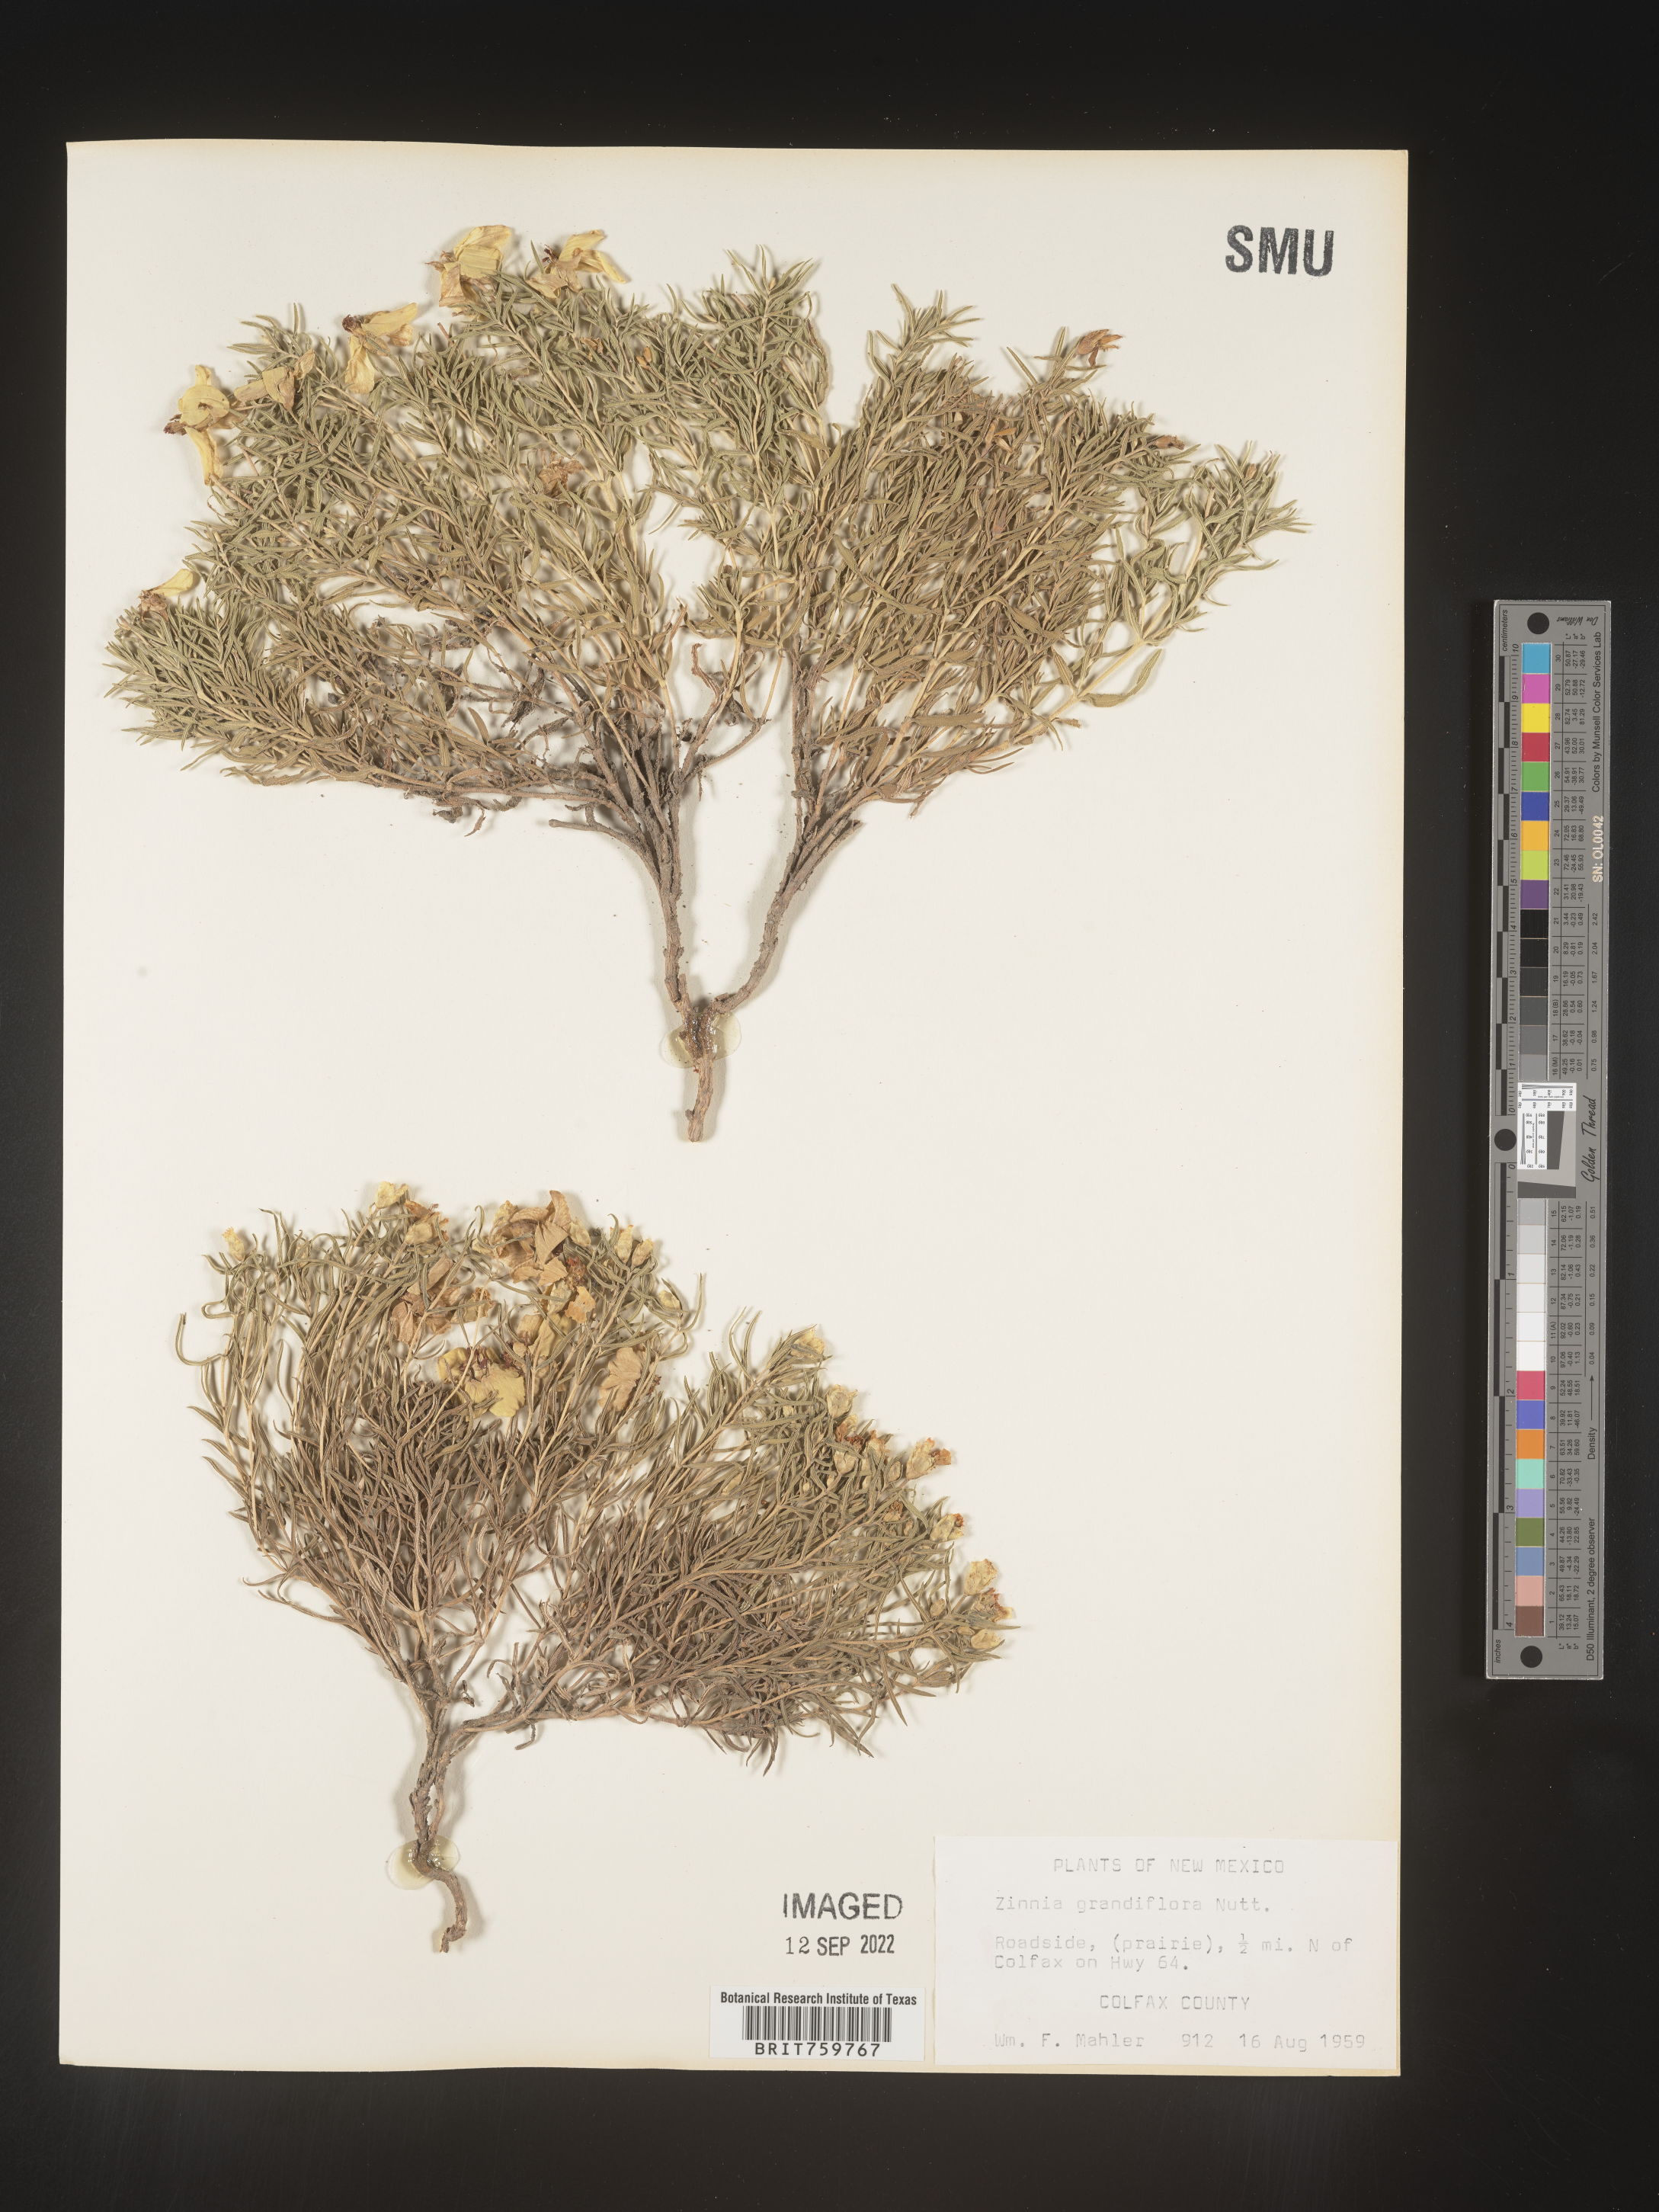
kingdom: Plantae
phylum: Tracheophyta
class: Magnoliopsida
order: Asterales
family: Asteraceae
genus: Zinnia
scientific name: Zinnia grandiflora
